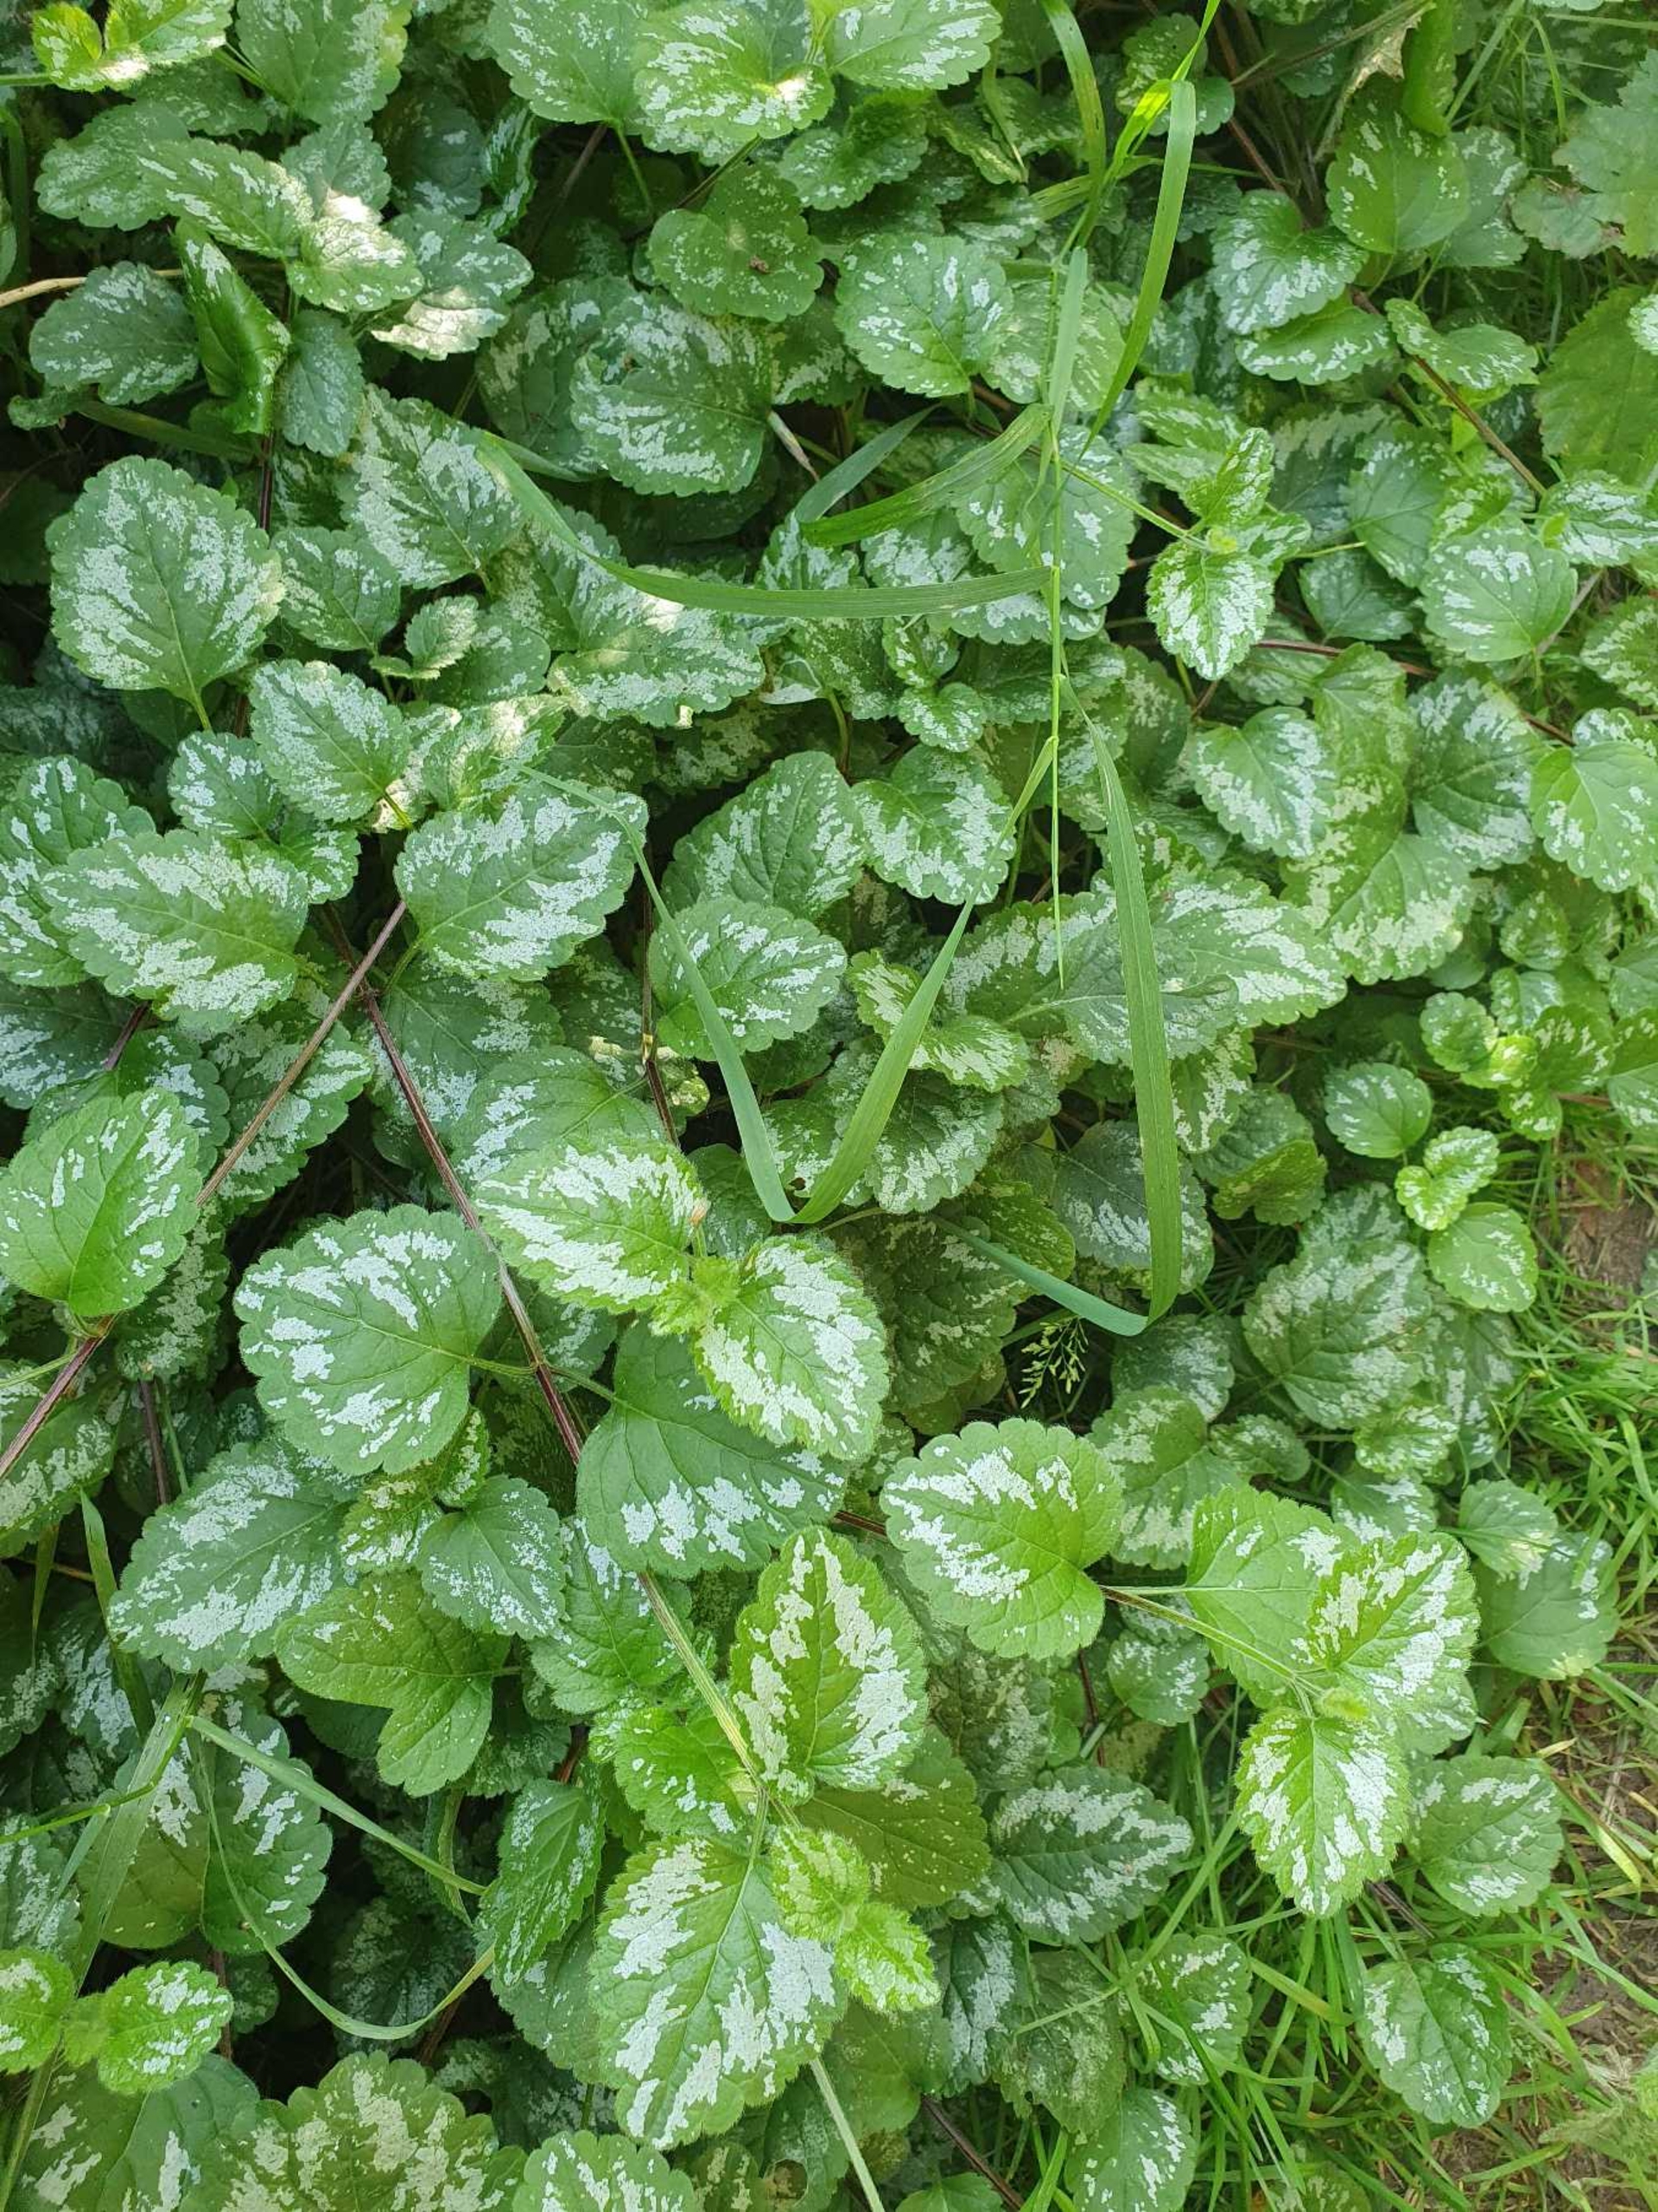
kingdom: Plantae
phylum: Tracheophyta
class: Magnoliopsida
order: Lamiales
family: Lamiaceae
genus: Lamium
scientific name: Lamium galeobdolon
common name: Have-guldnælde
